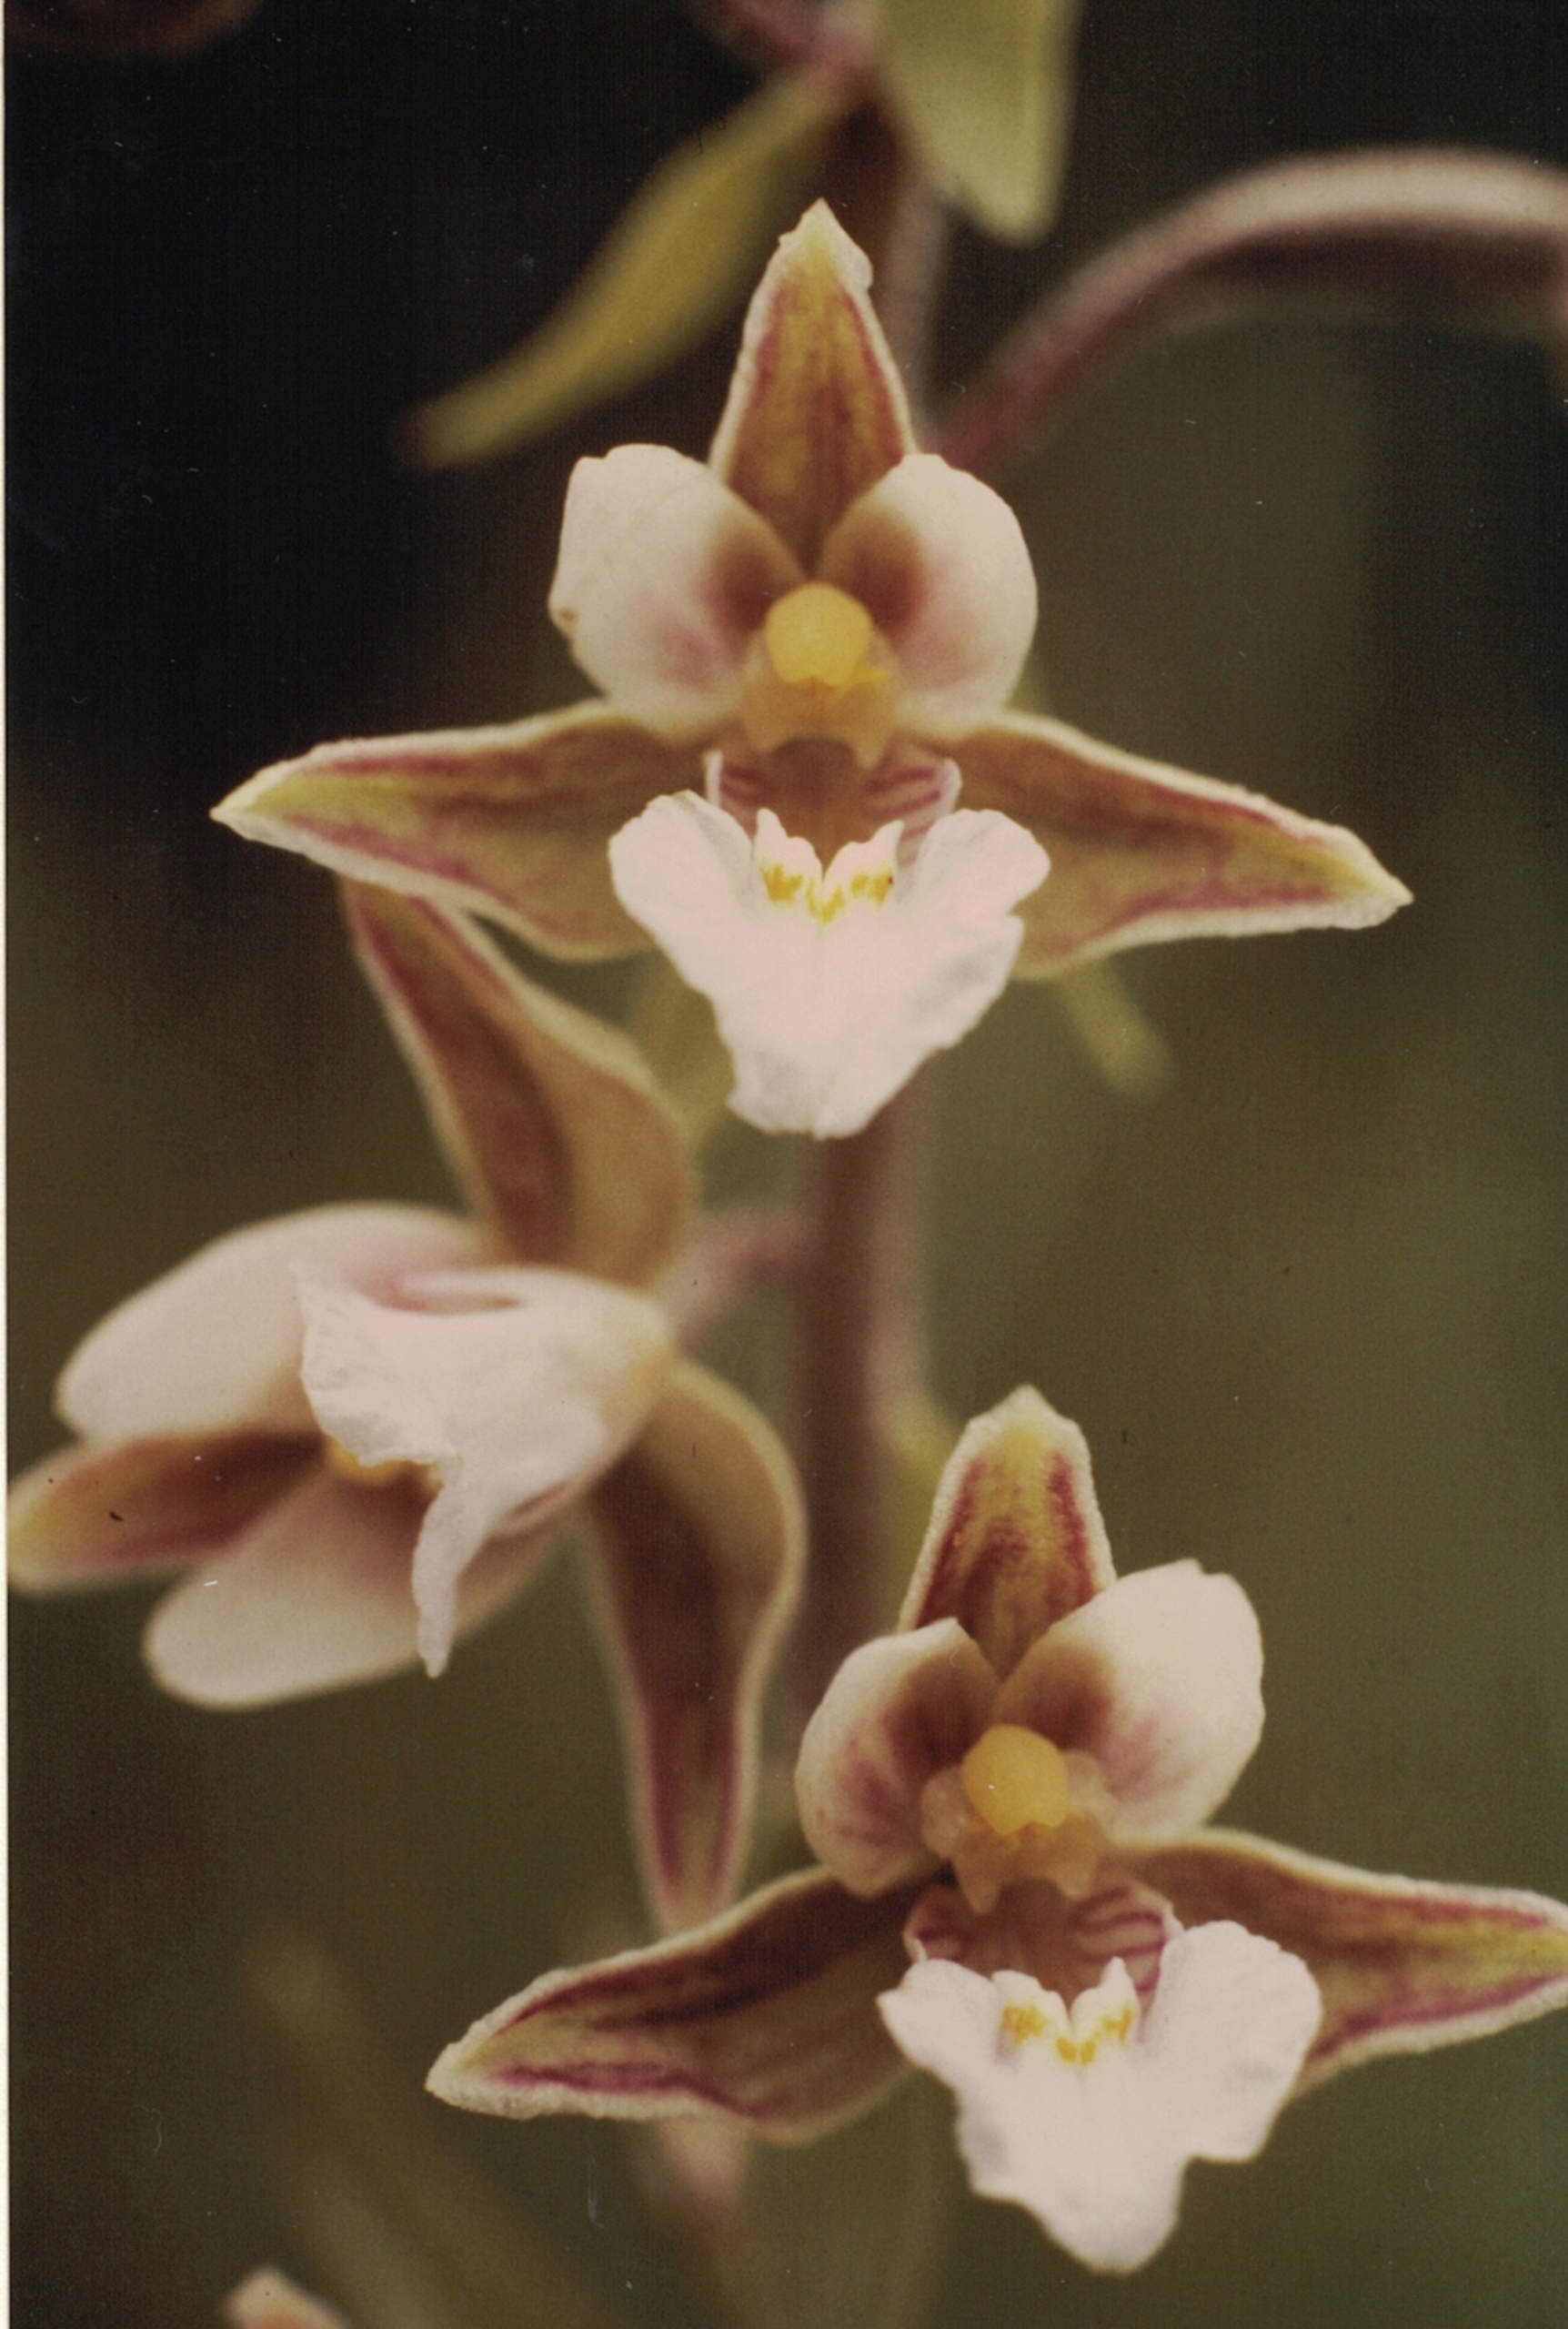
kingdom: Plantae
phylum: Tracheophyta
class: Liliopsida
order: Asparagales
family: Orchidaceae
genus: Epipactis
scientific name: Epipactis palustris
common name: Sump-hullæbe
